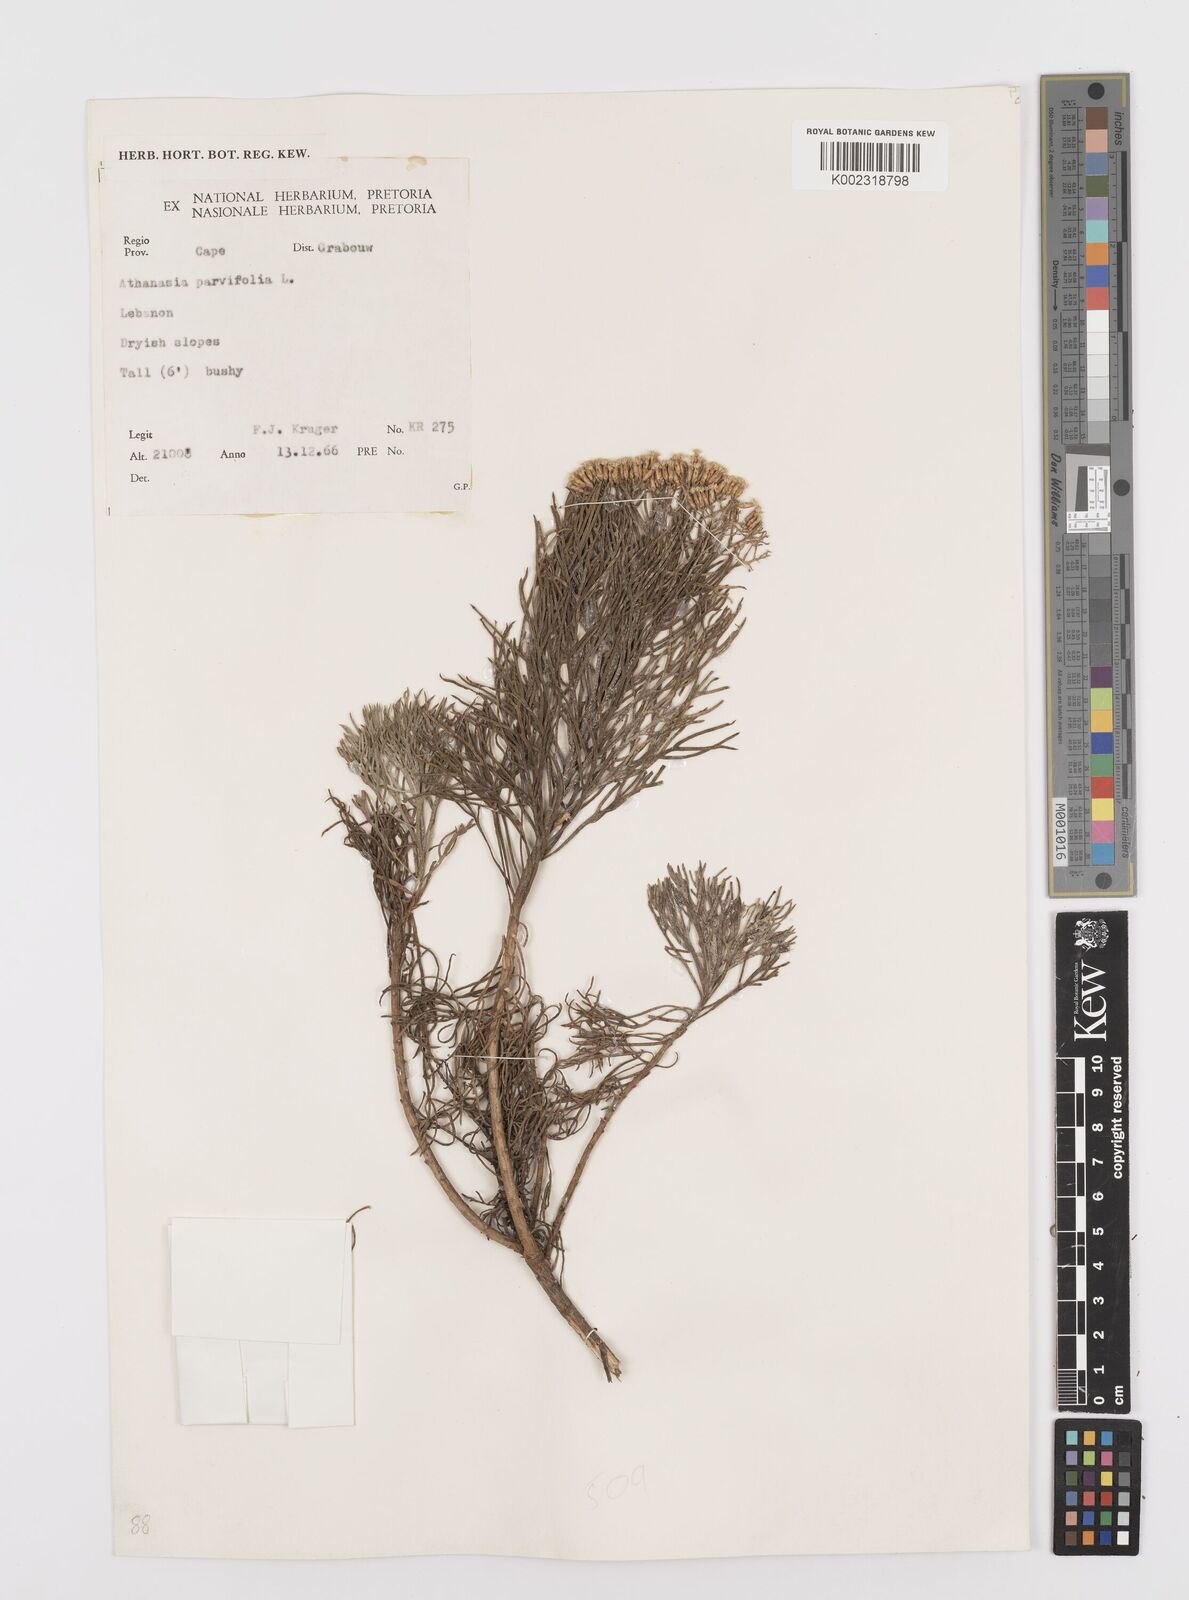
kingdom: Plantae
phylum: Tracheophyta
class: Magnoliopsida
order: Asterales
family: Asteraceae
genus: Hymenolepis
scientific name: Hymenolepis crithmifolia
